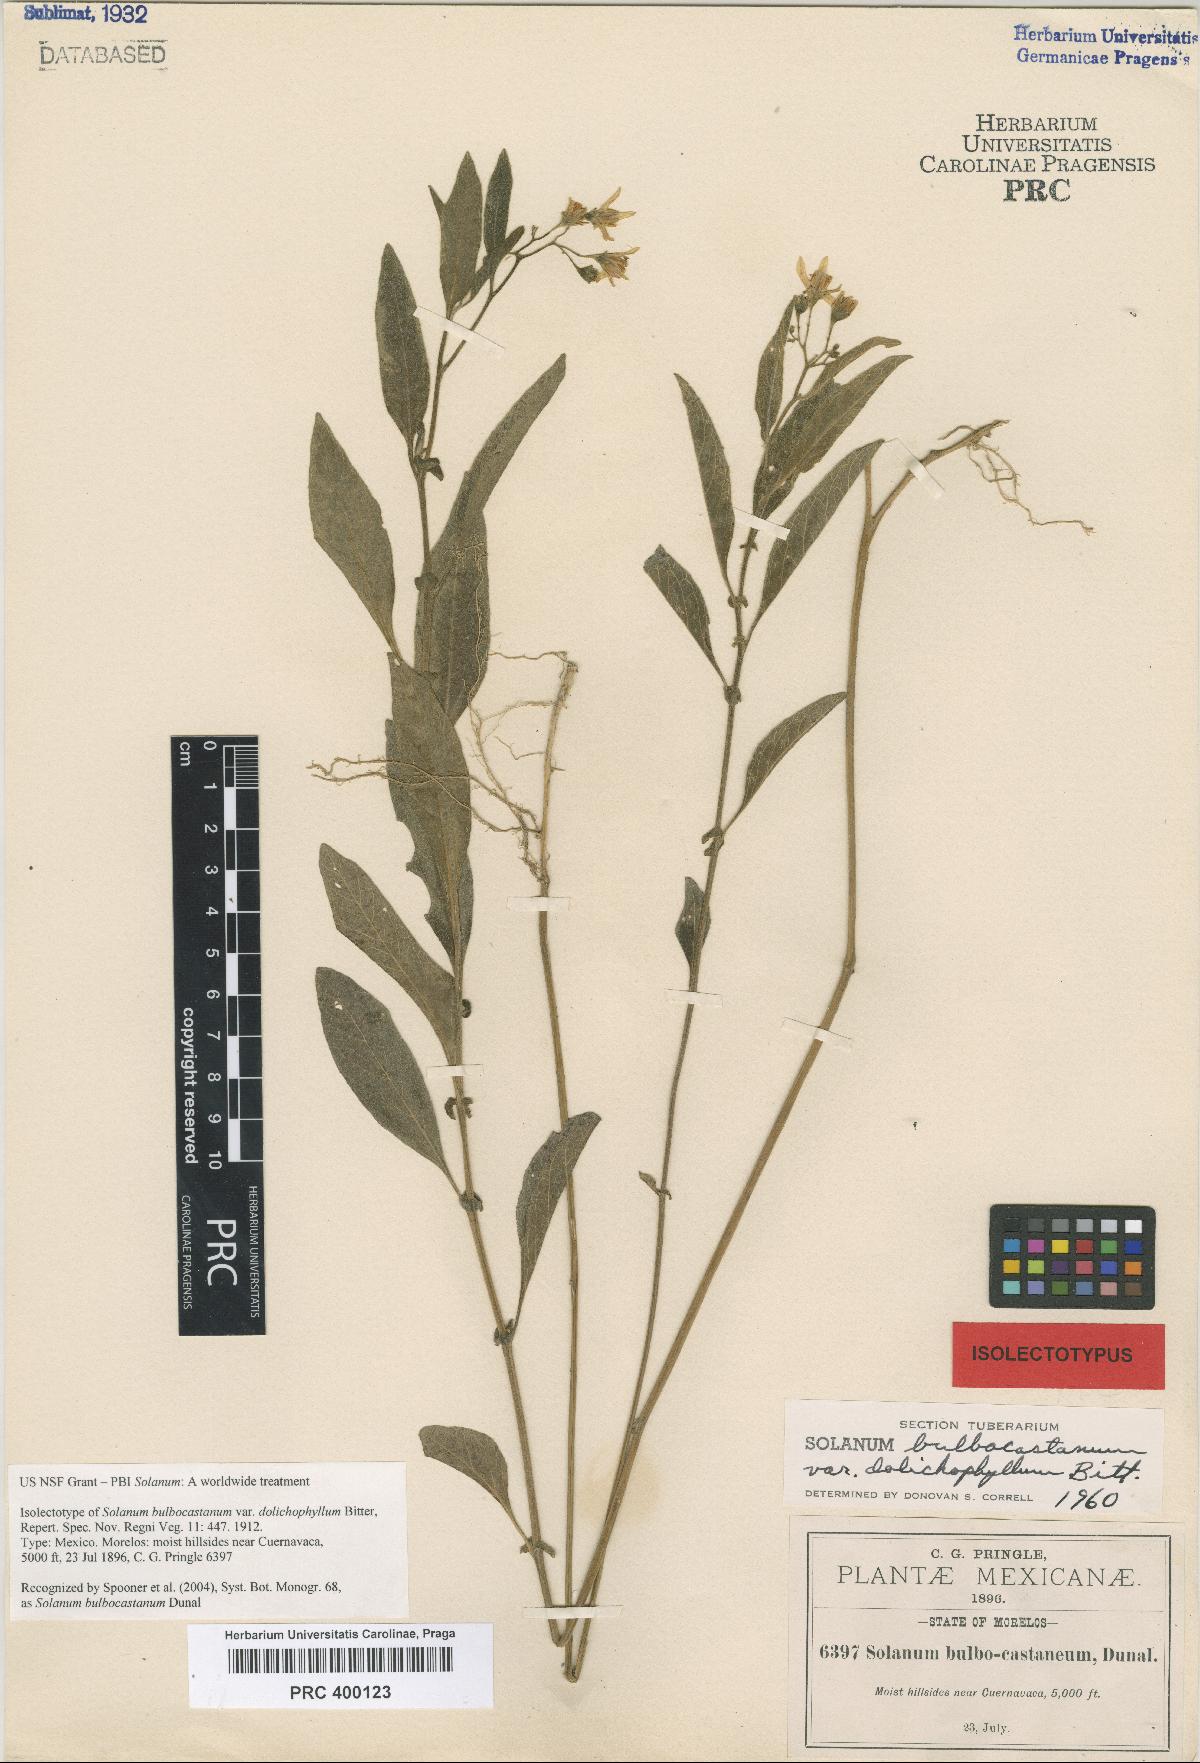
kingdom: Plantae
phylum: Tracheophyta
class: Magnoliopsida
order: Solanales
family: Solanaceae
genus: Solanum
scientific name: Solanum bulbocastanum
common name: Ornamental nightshade
